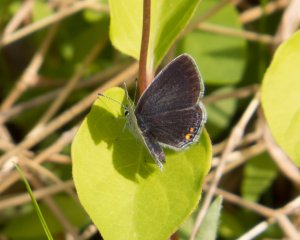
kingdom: Animalia
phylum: Arthropoda
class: Insecta
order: Lepidoptera
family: Lycaenidae
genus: Elkalyce
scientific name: Elkalyce comyntas
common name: Eastern Tailed-Blue
